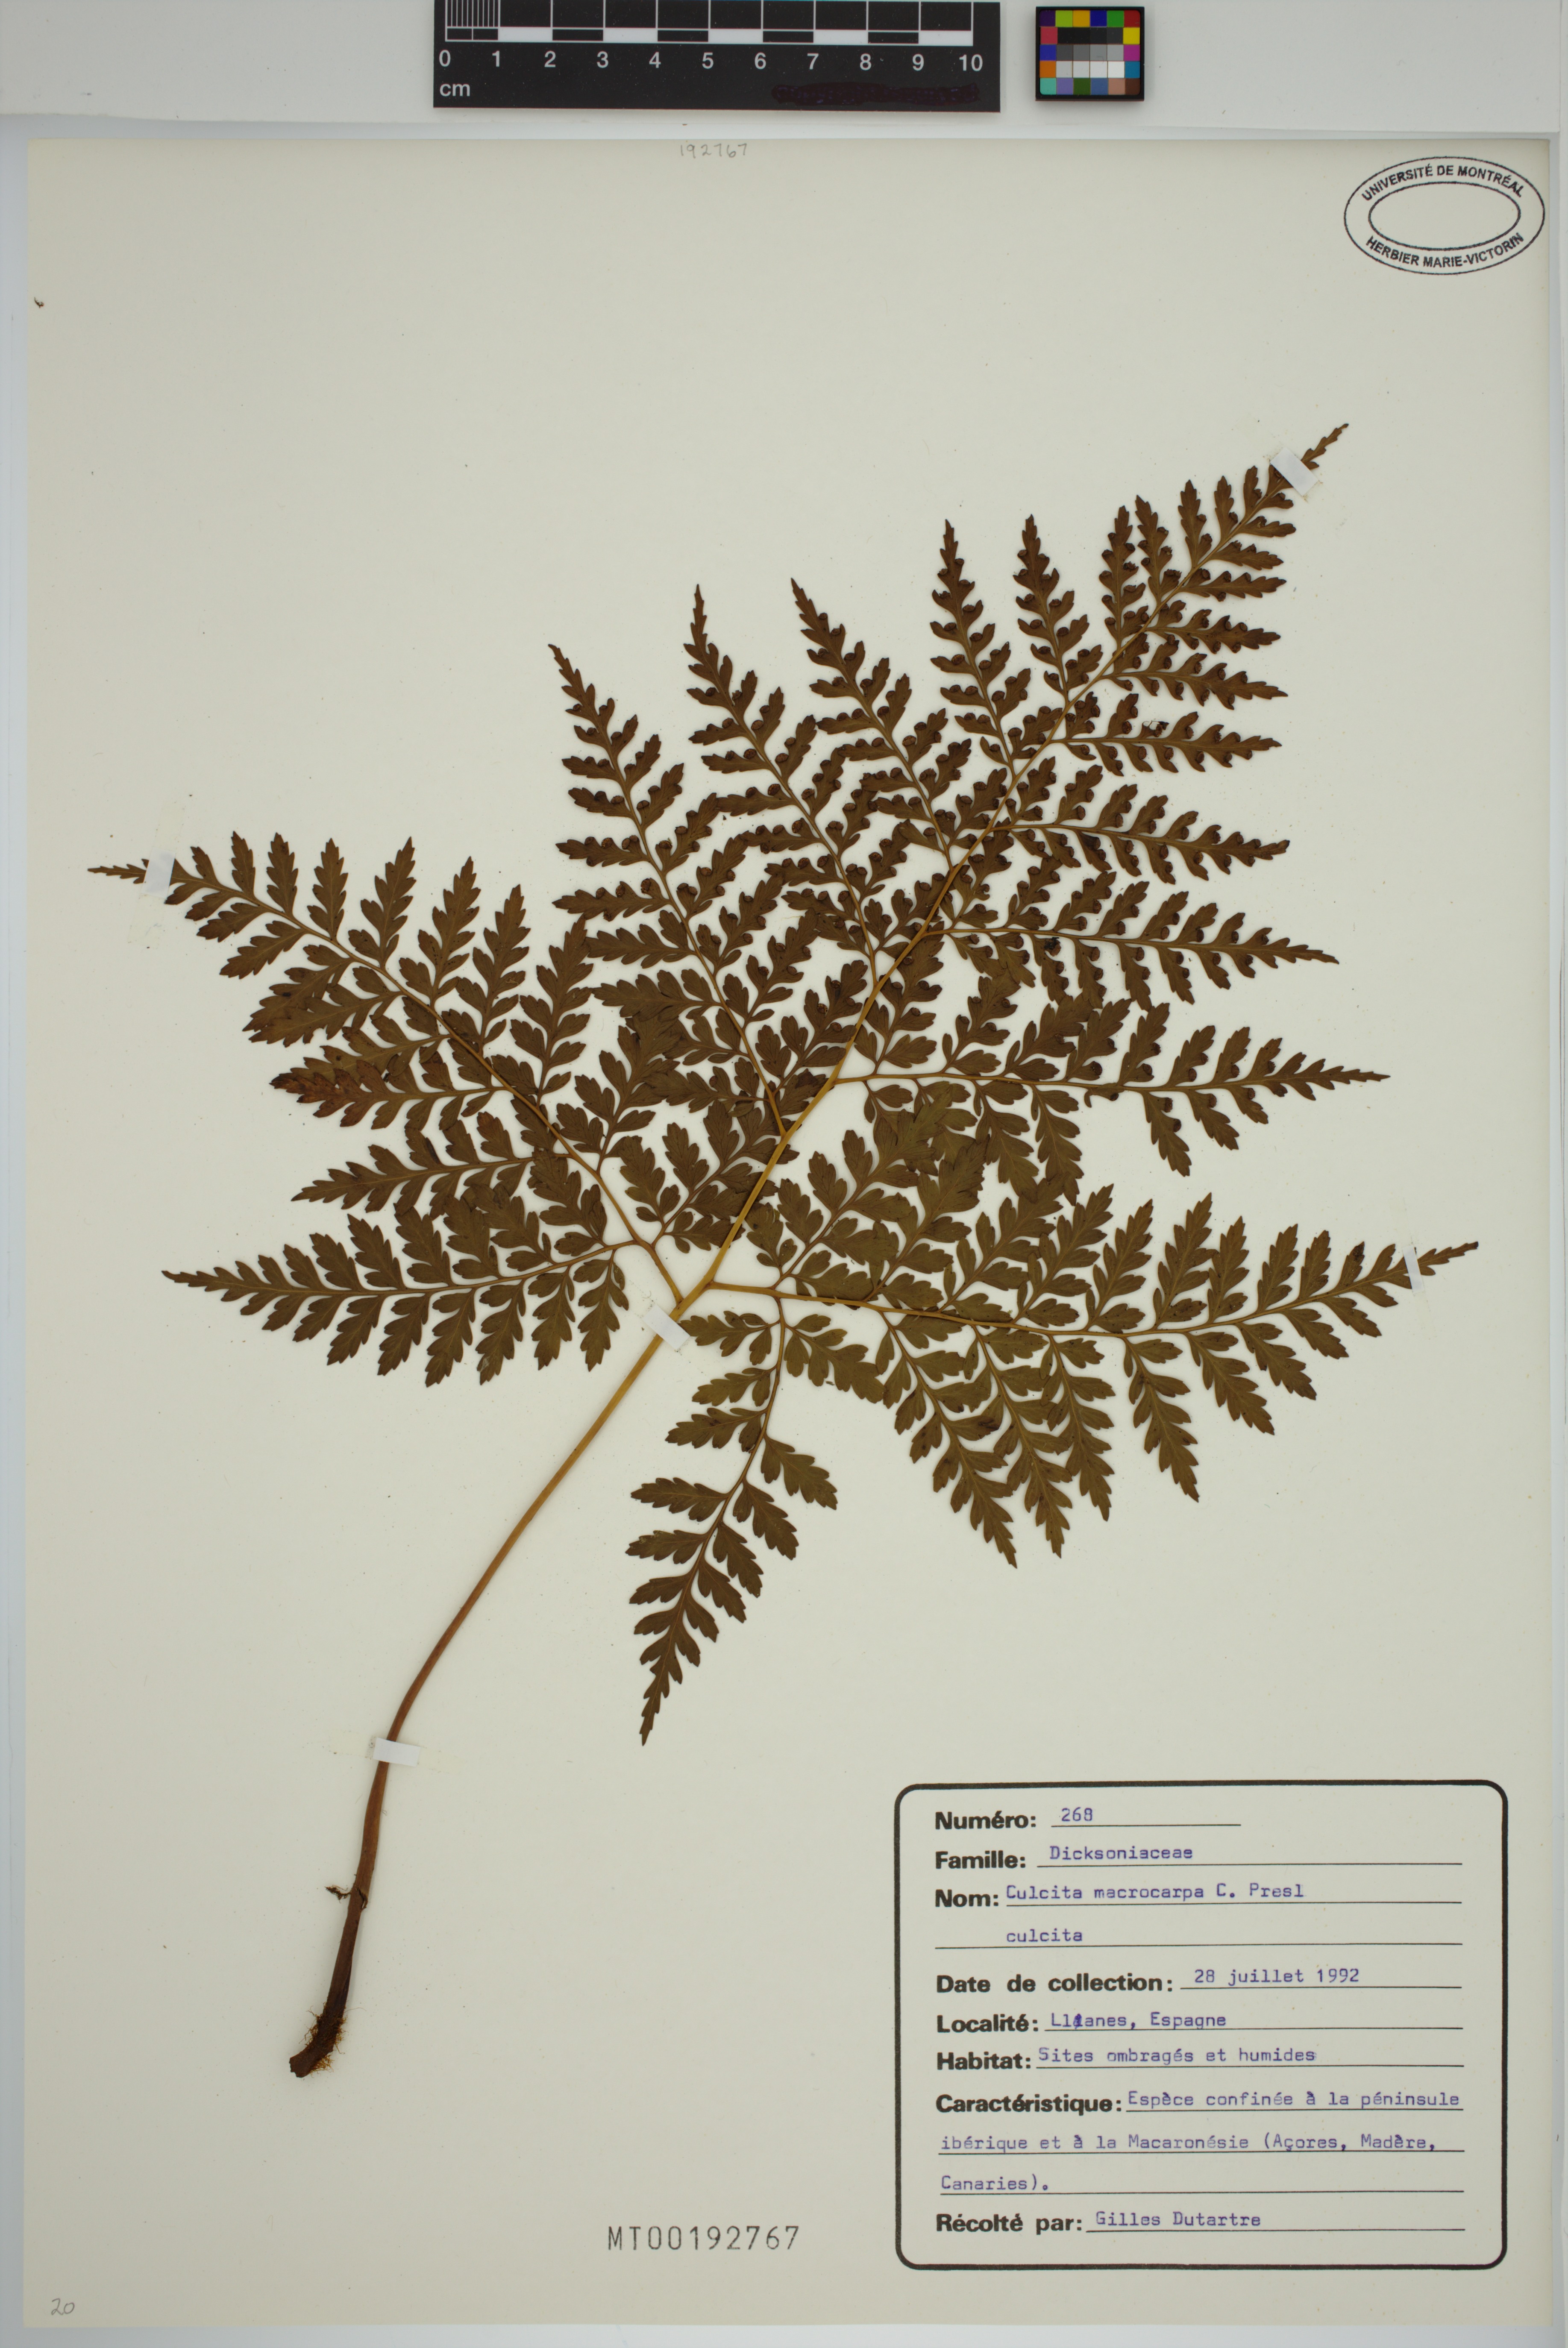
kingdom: Plantae
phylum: Tracheophyta
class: Polypodiopsida
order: Cyatheales
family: Culcitaceae
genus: Culcita
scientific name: Culcita macrocarpa
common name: Woolly tree fern
